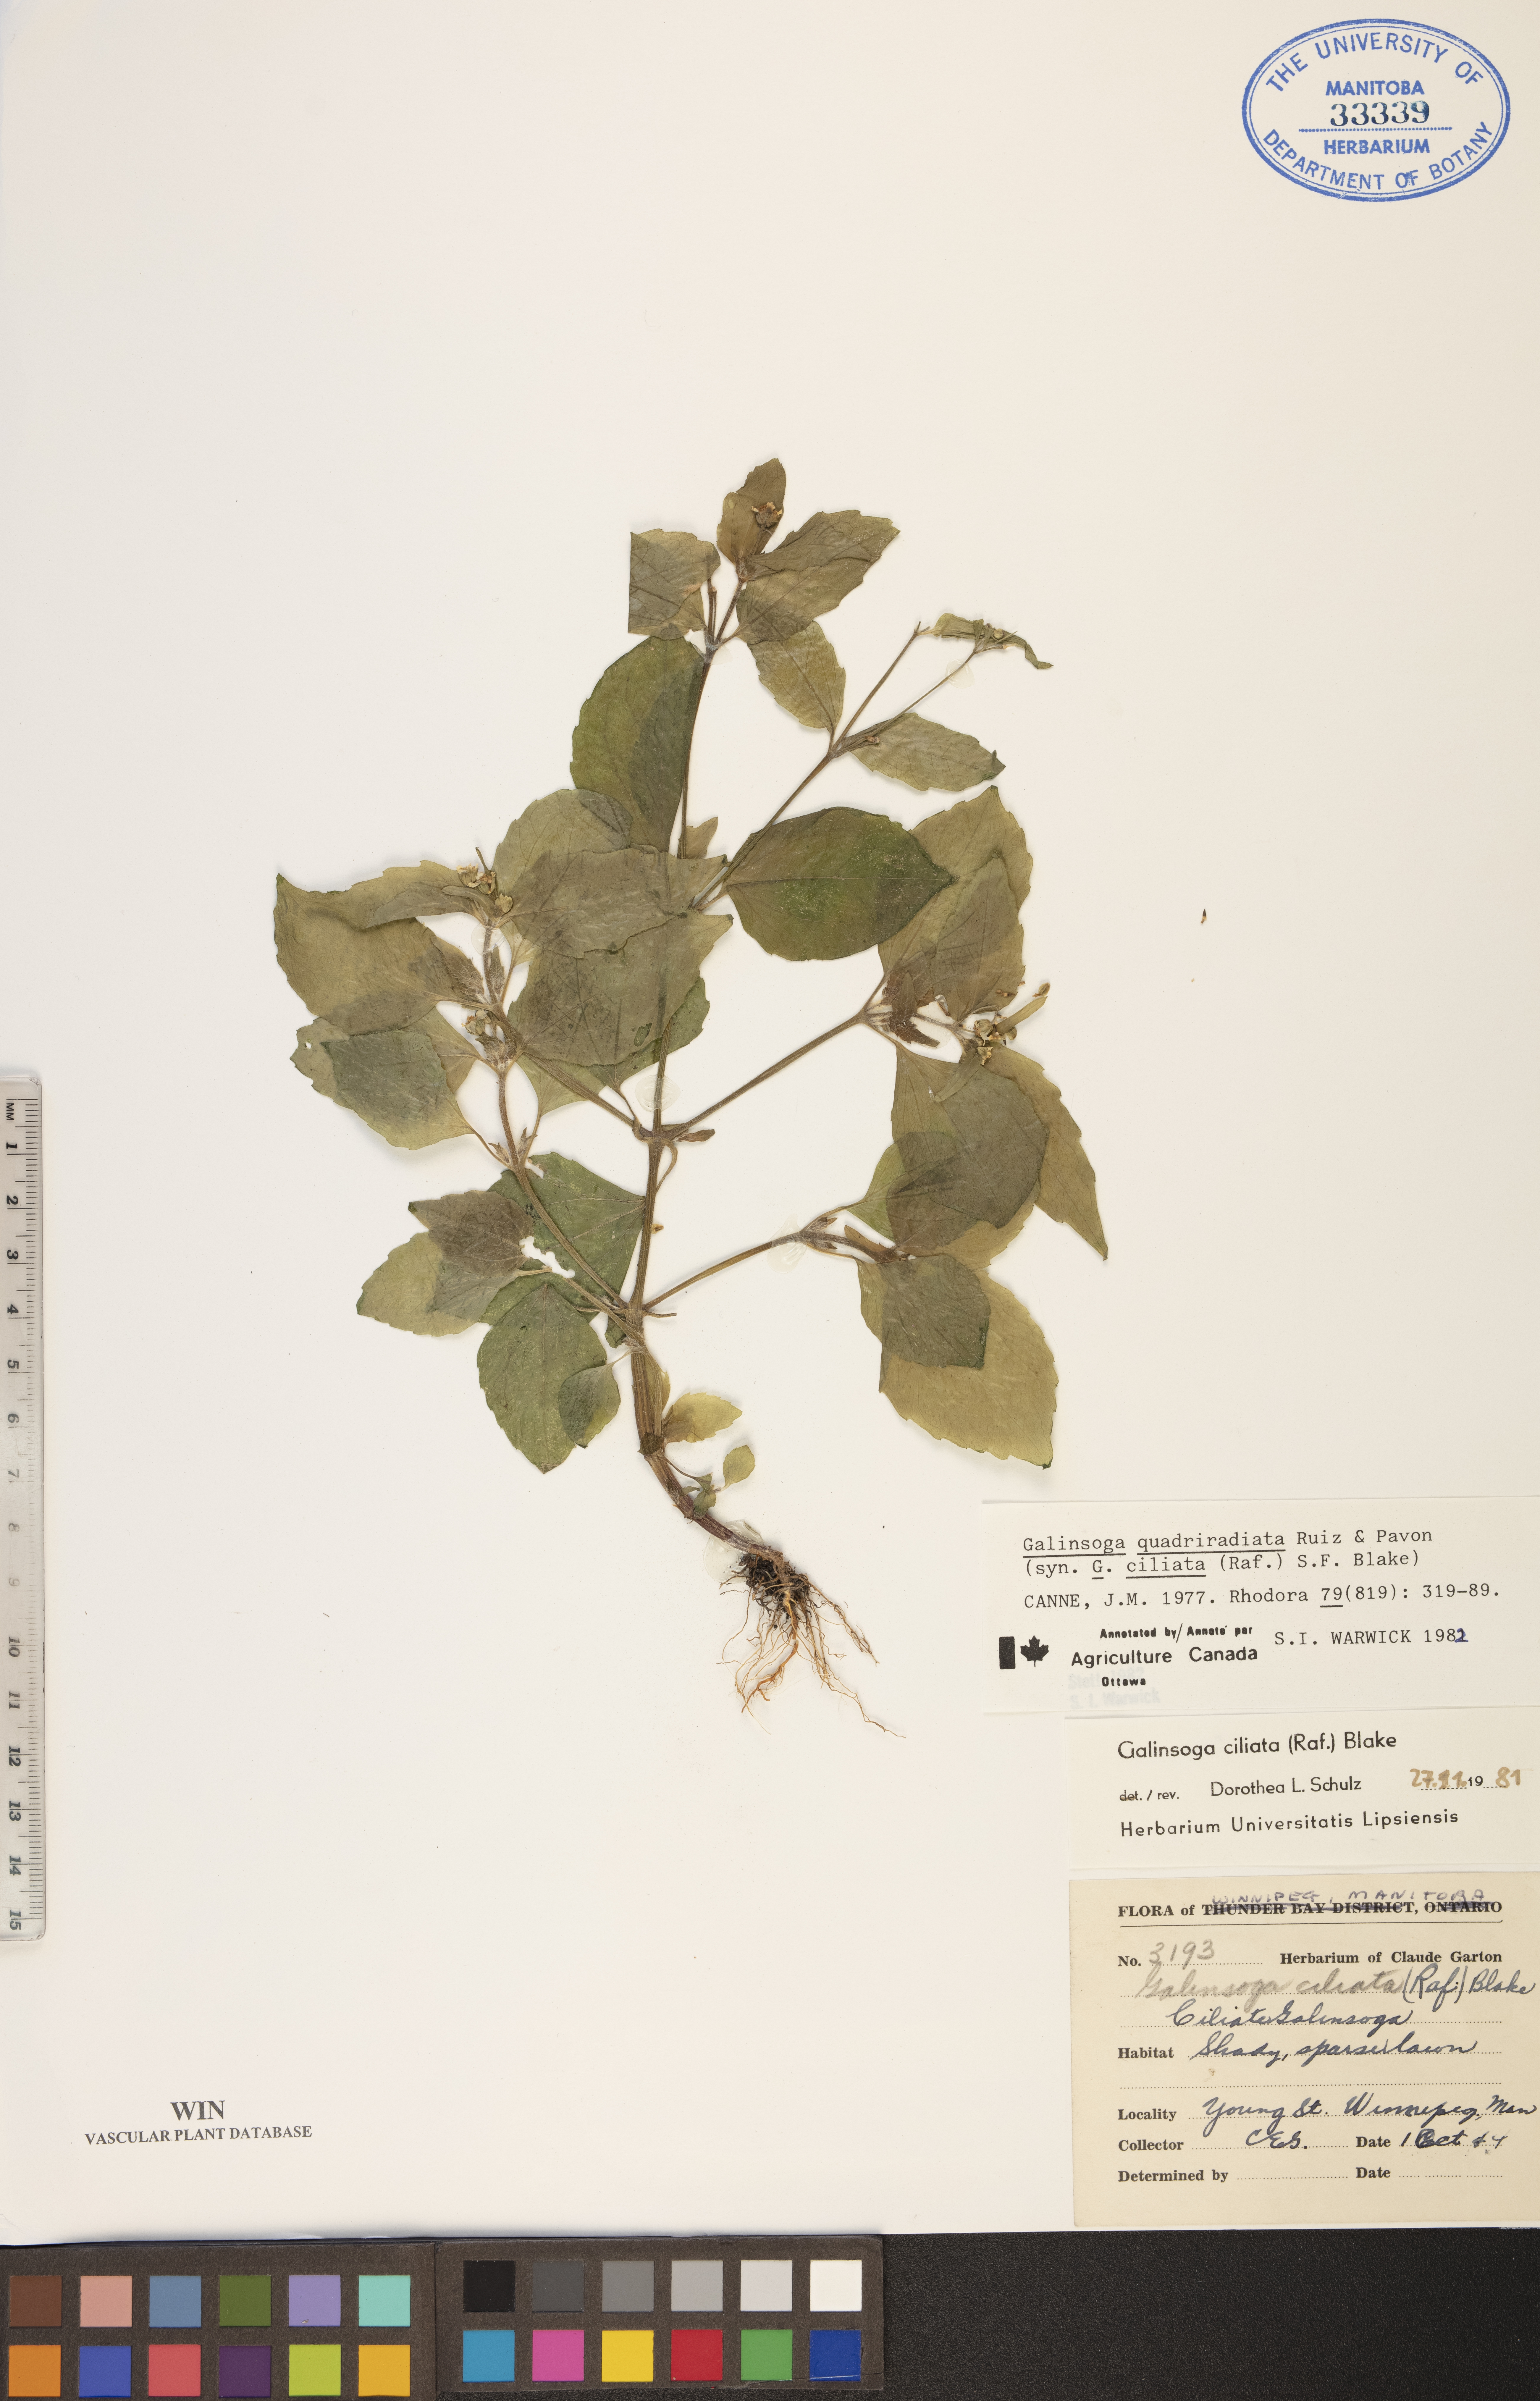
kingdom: Plantae
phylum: Tracheophyta
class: Magnoliopsida
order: Asterales
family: Asteraceae
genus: Galinsoga
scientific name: Galinsoga quadriradiata
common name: Shaggy soldier
